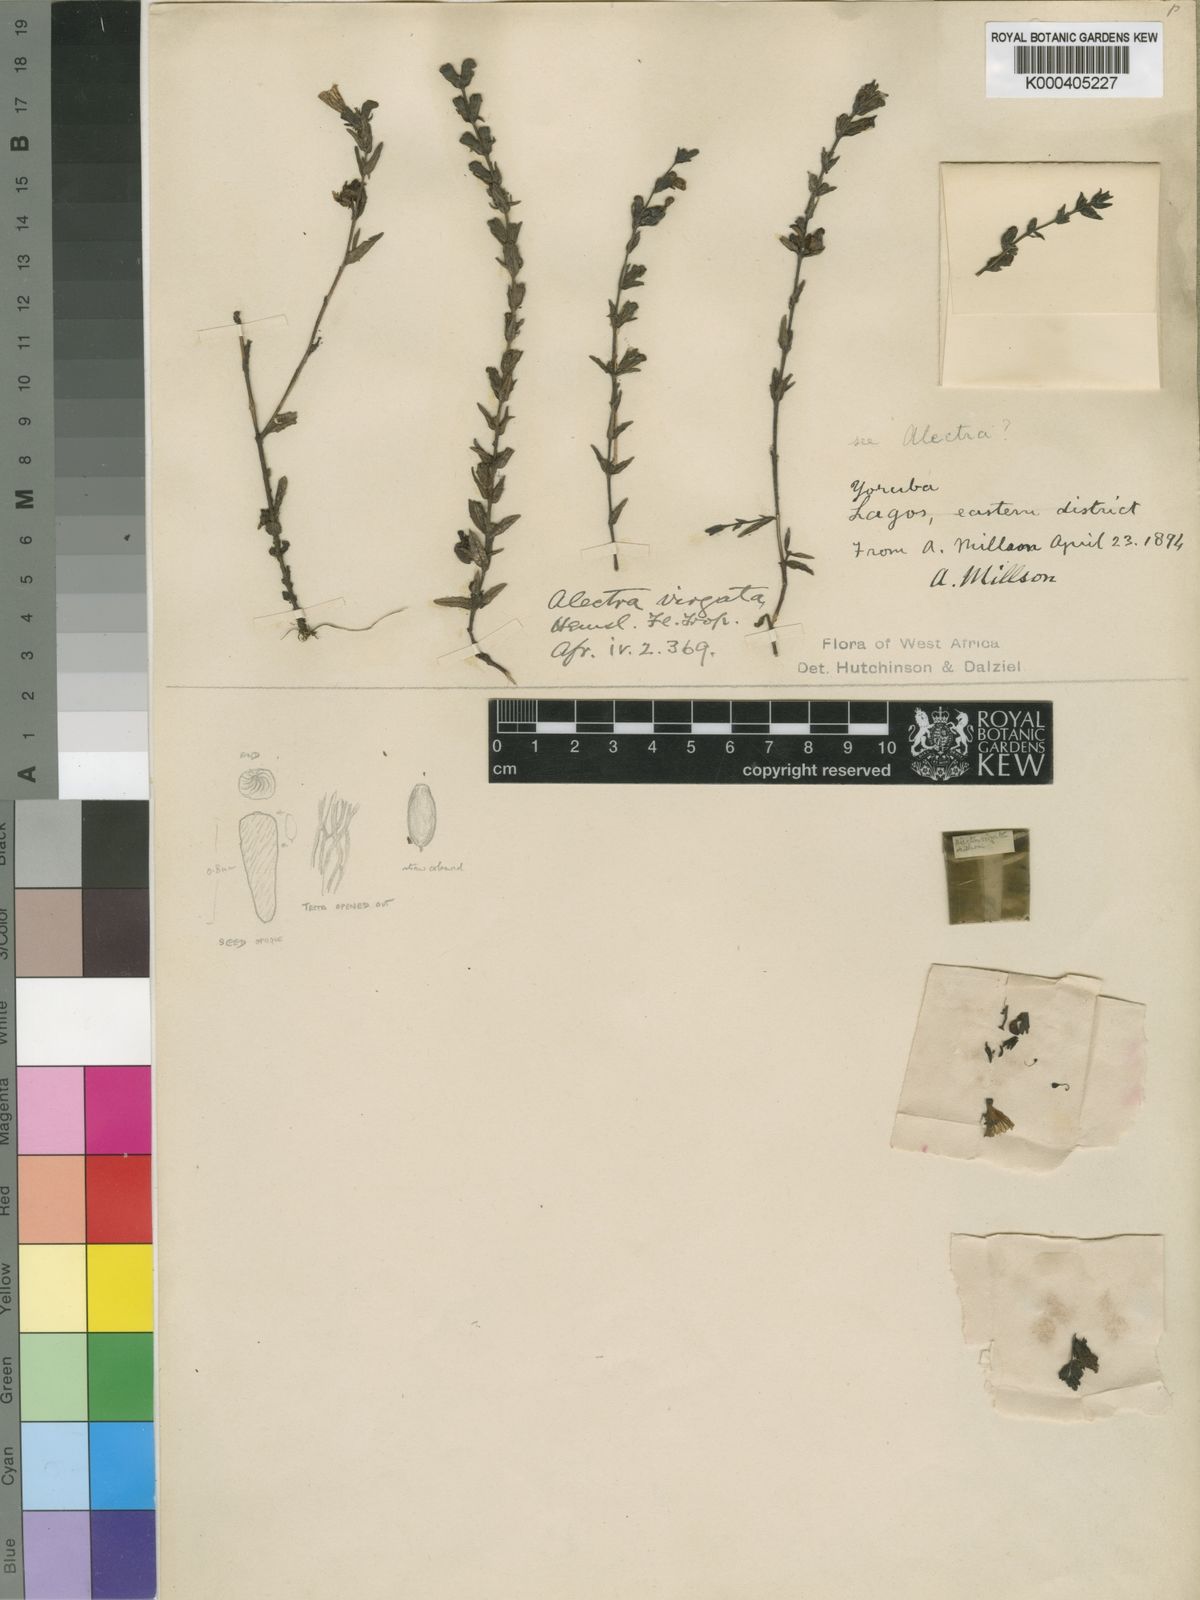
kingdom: Plantae
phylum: Tracheophyta
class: Magnoliopsida
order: Lamiales
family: Orobanchaceae
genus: Alectra
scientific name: Alectra virgata
